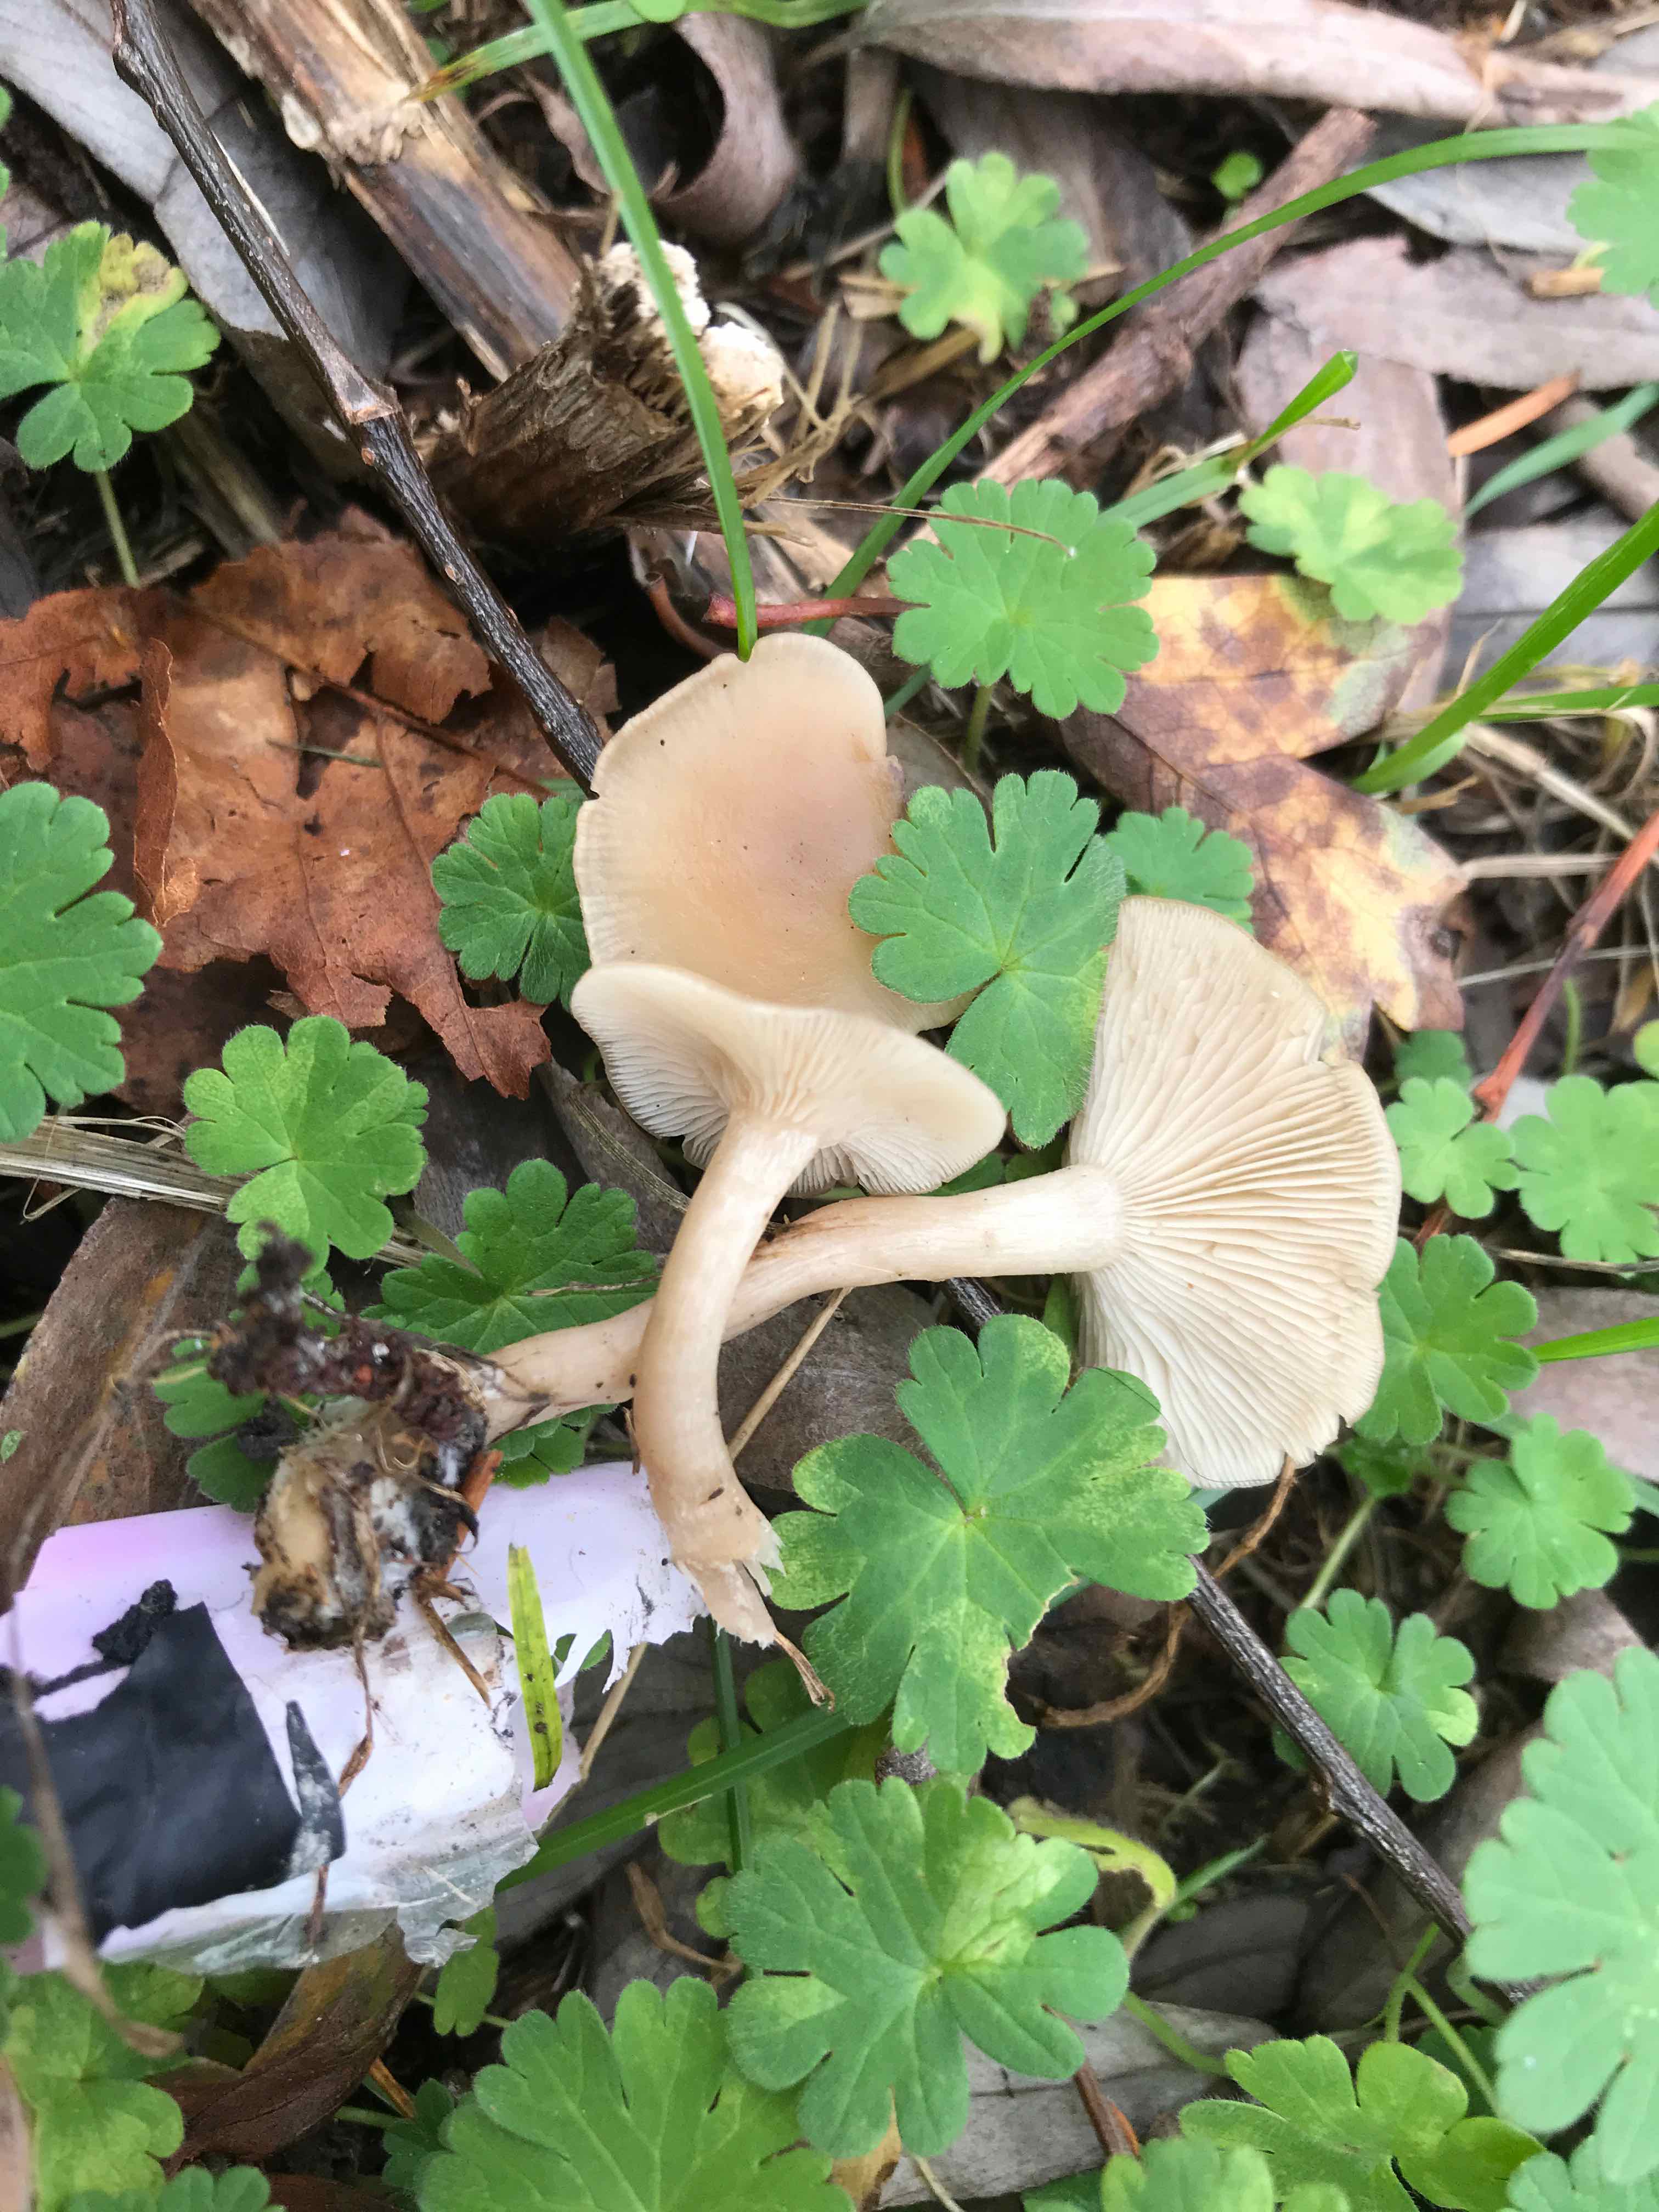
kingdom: Fungi
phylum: Basidiomycota
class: Agaricomycetes
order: Agaricales
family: Tricholomataceae
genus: Clitocybe
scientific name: Clitocybe fragrans
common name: vellugtende tragthat
